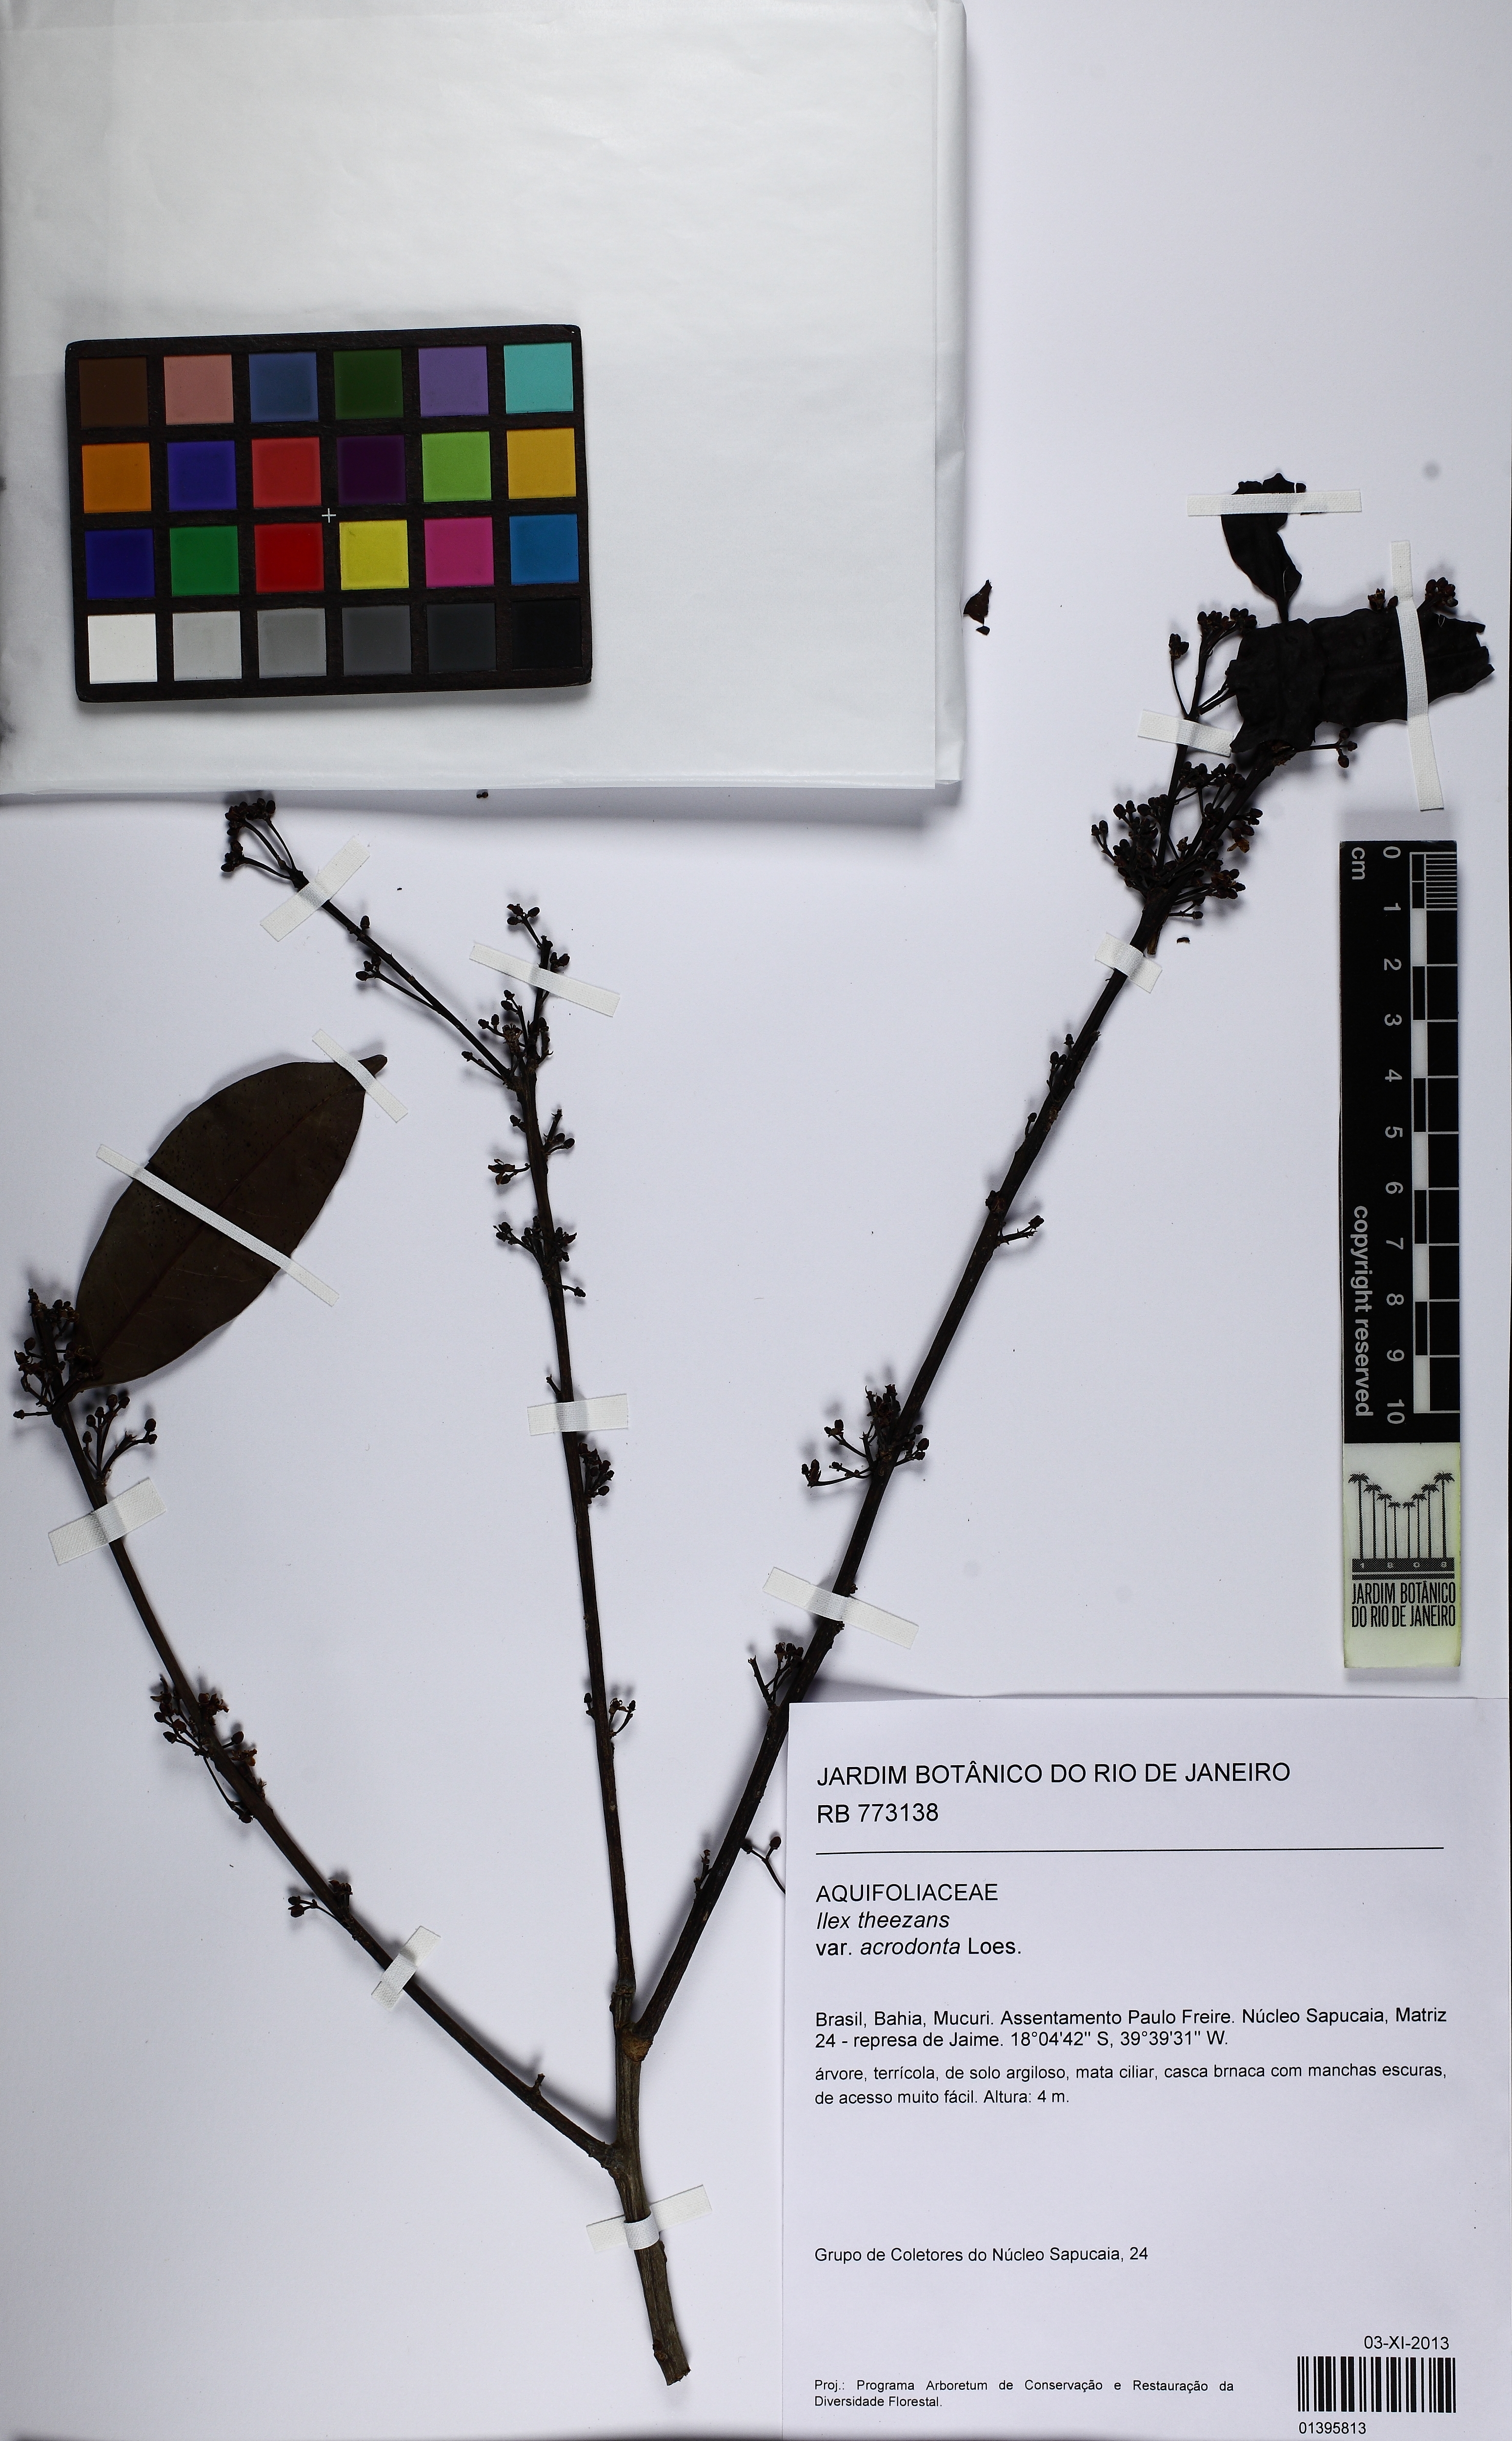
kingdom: Plantae
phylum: Tracheophyta
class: Magnoliopsida
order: Aquifoliales
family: Aquifoliaceae
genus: Ilex
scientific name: Ilex theezans
